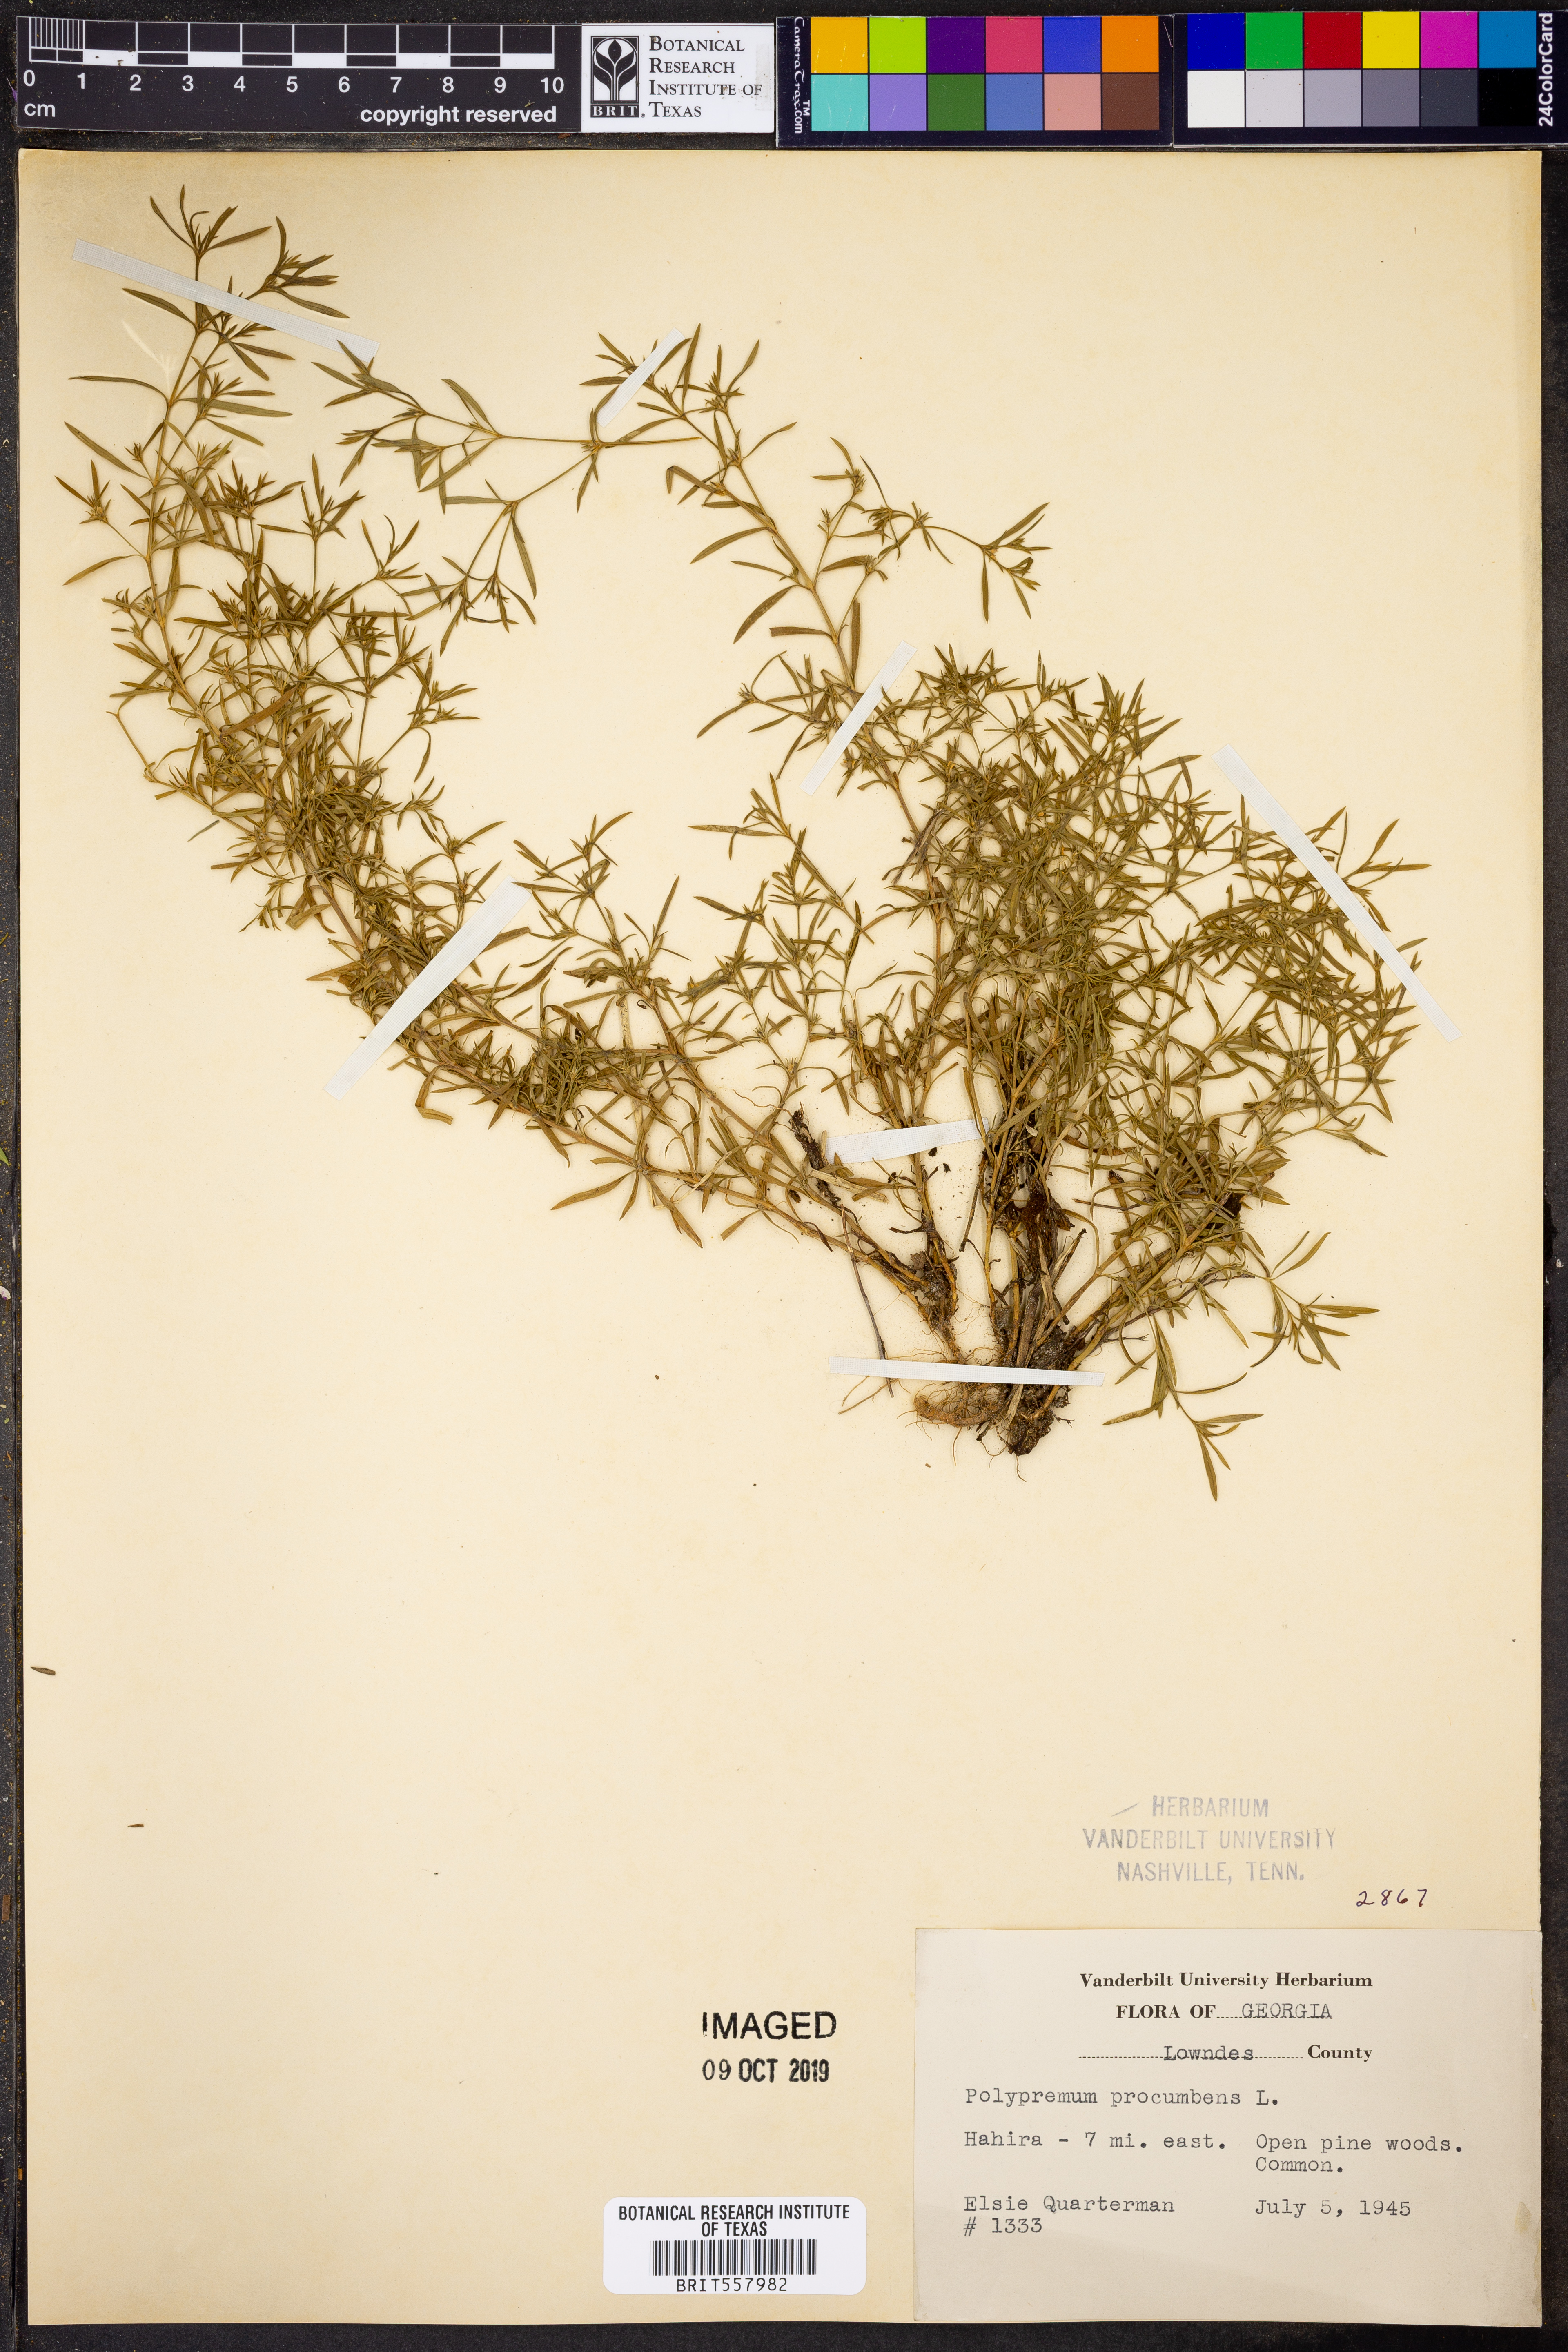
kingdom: Plantae
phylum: Tracheophyta
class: Magnoliopsida
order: Lamiales
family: Tetrachondraceae
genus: Polypremum
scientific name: Polypremum procumbens
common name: Juniper-leaf
